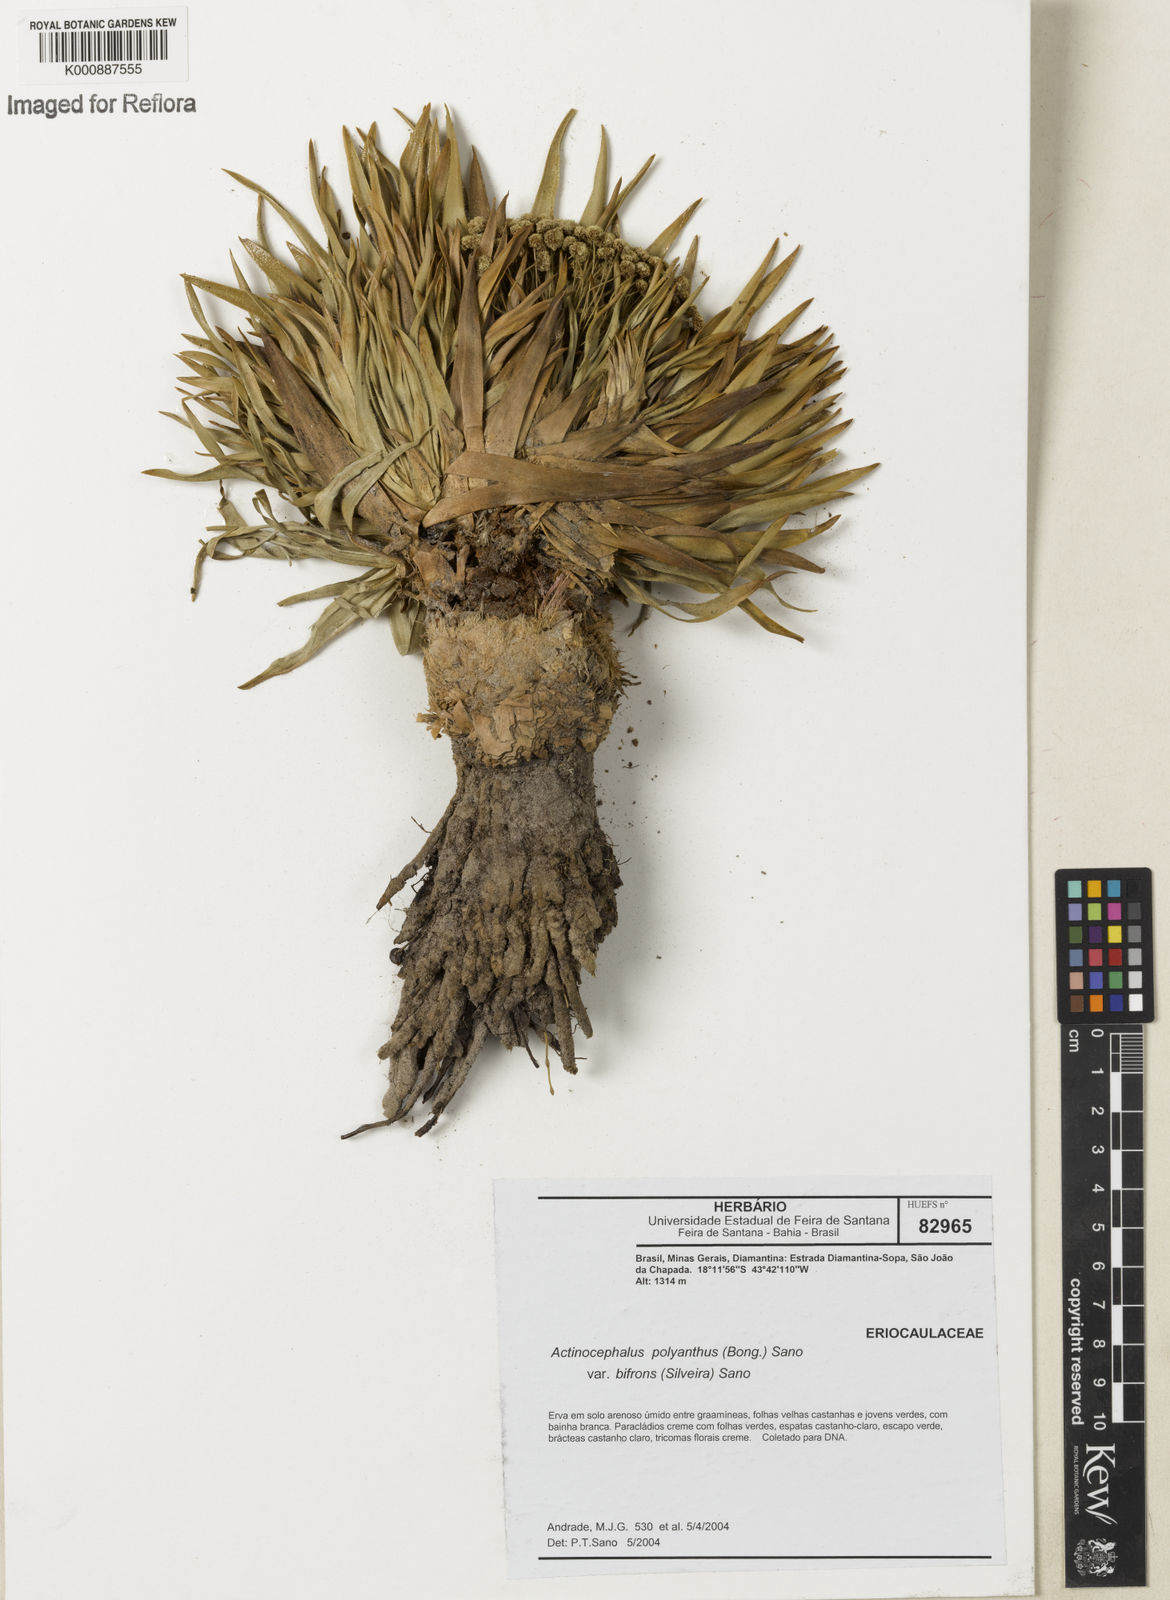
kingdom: Plantae
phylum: Tracheophyta
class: Liliopsida
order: Poales
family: Eriocaulaceae
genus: Paepalanthus
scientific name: Paepalanthus polyanthus
